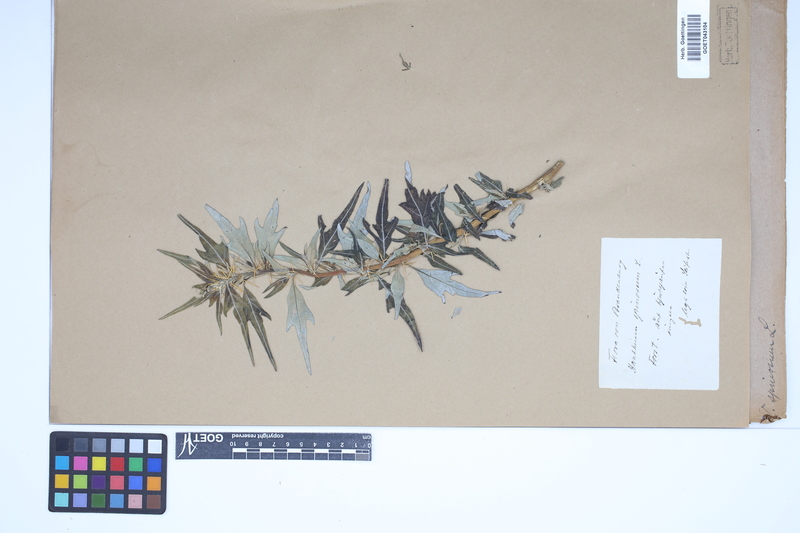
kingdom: Plantae
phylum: Tracheophyta
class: Magnoliopsida
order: Asterales
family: Asteraceae
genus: Xanthium
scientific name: Xanthium spinosum
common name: Spiny cocklebur
